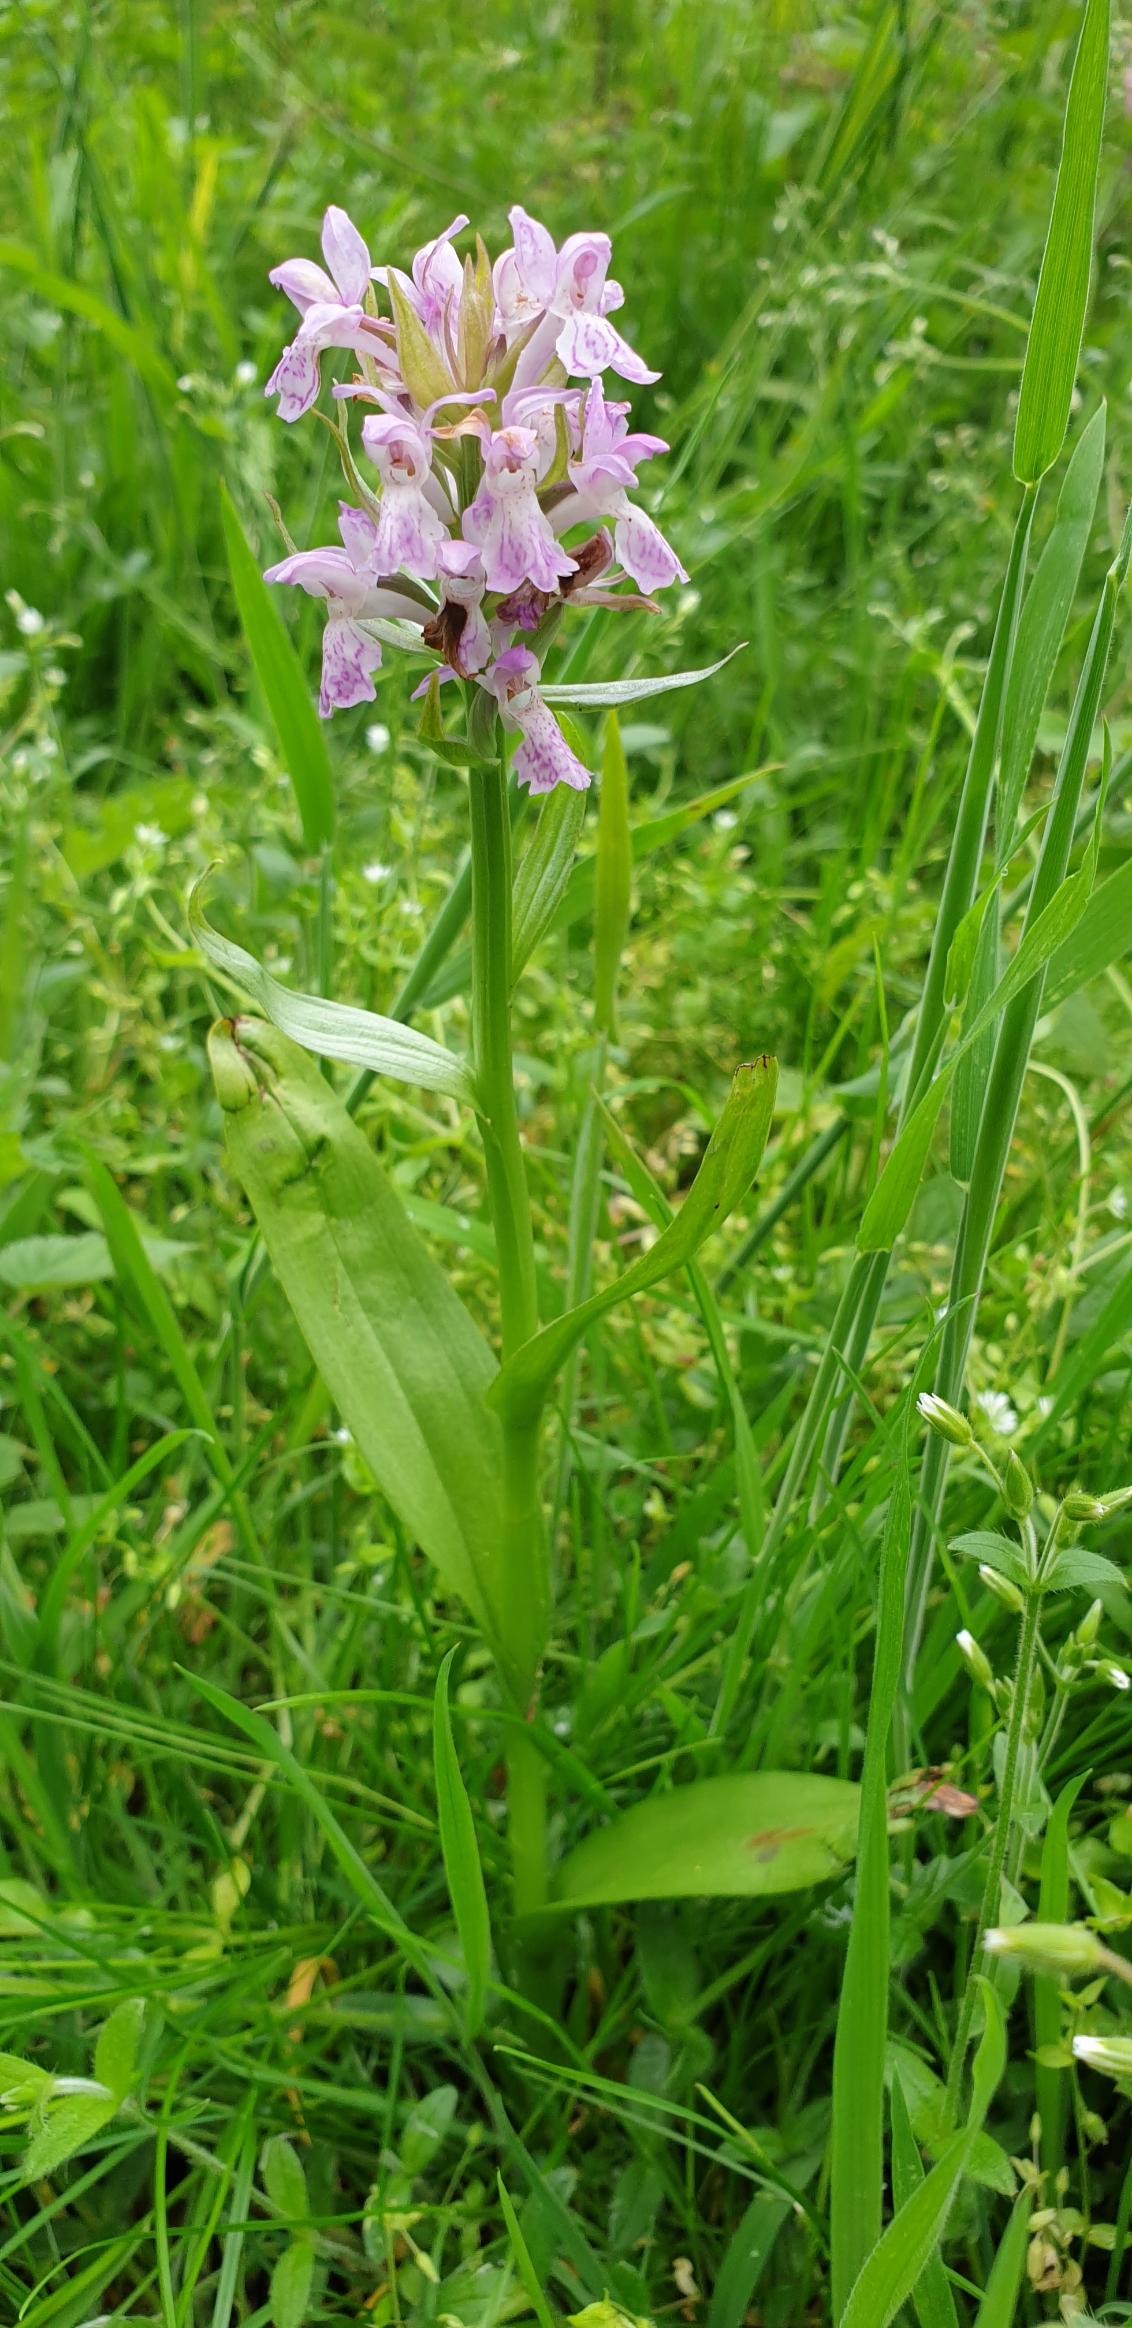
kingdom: Plantae
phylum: Tracheophyta
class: Liliopsida
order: Asparagales
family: Orchidaceae
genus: Dactylorhiza
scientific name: Dactylorhiza majalis
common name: Maj-gøgeurt
